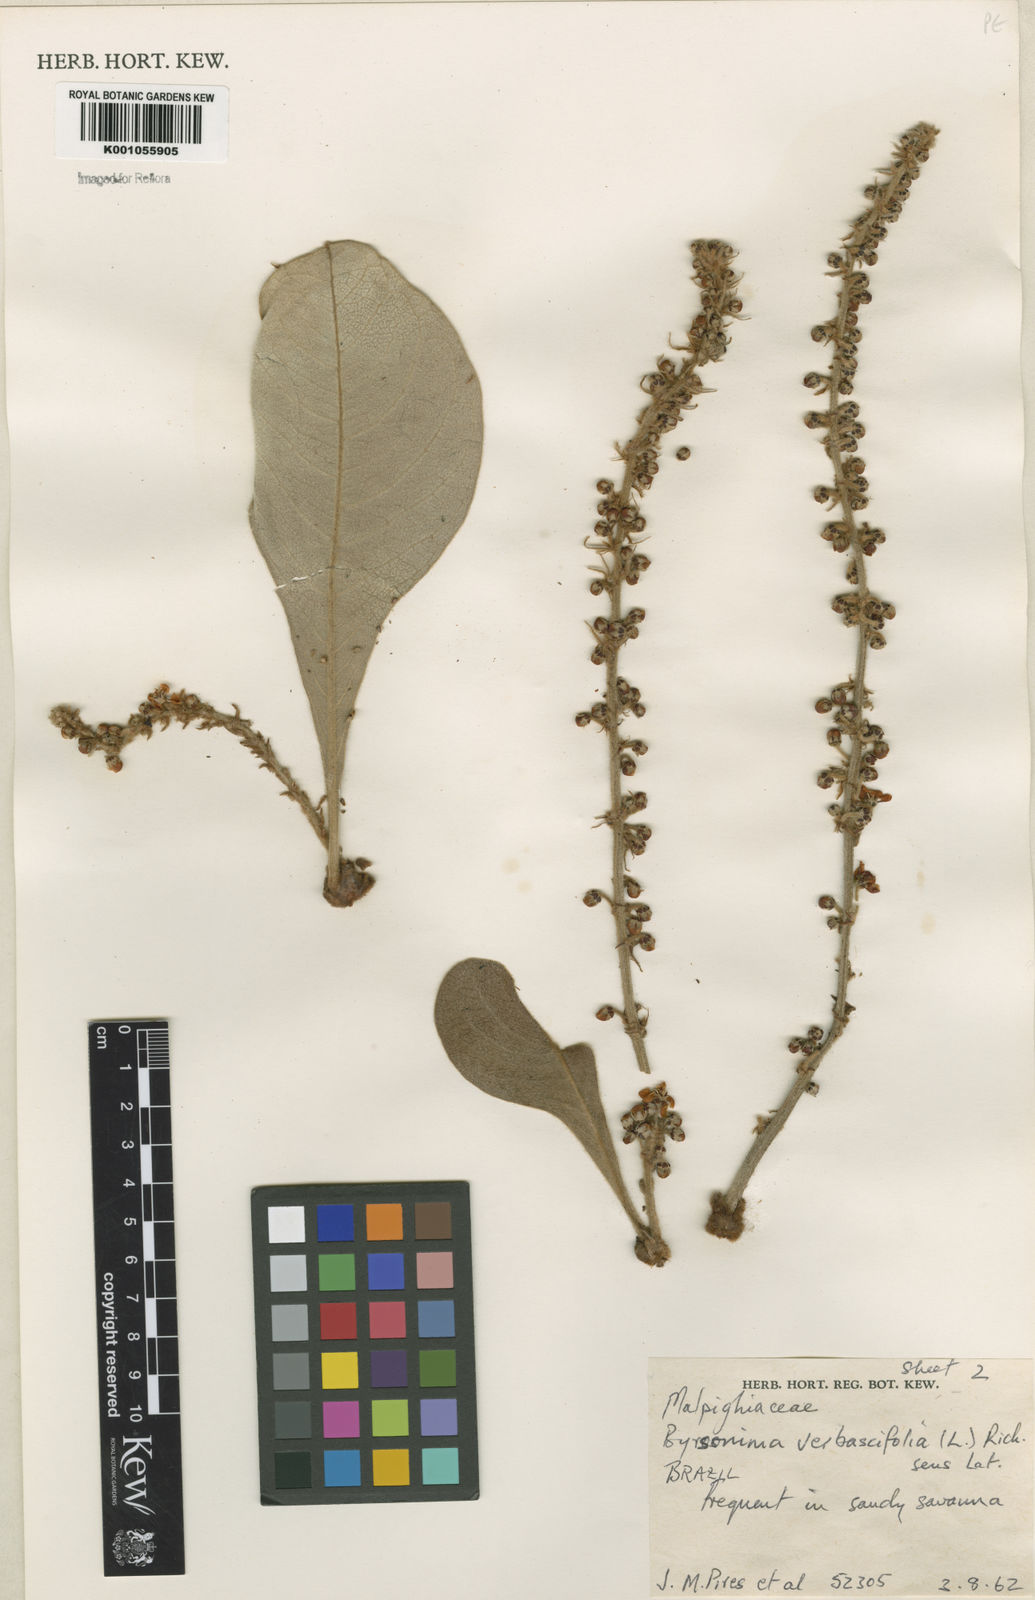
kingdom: Plantae
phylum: Tracheophyta
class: Magnoliopsida
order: Malpighiales
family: Malpighiaceae
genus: Byrsonima
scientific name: Byrsonima verbascifolia
